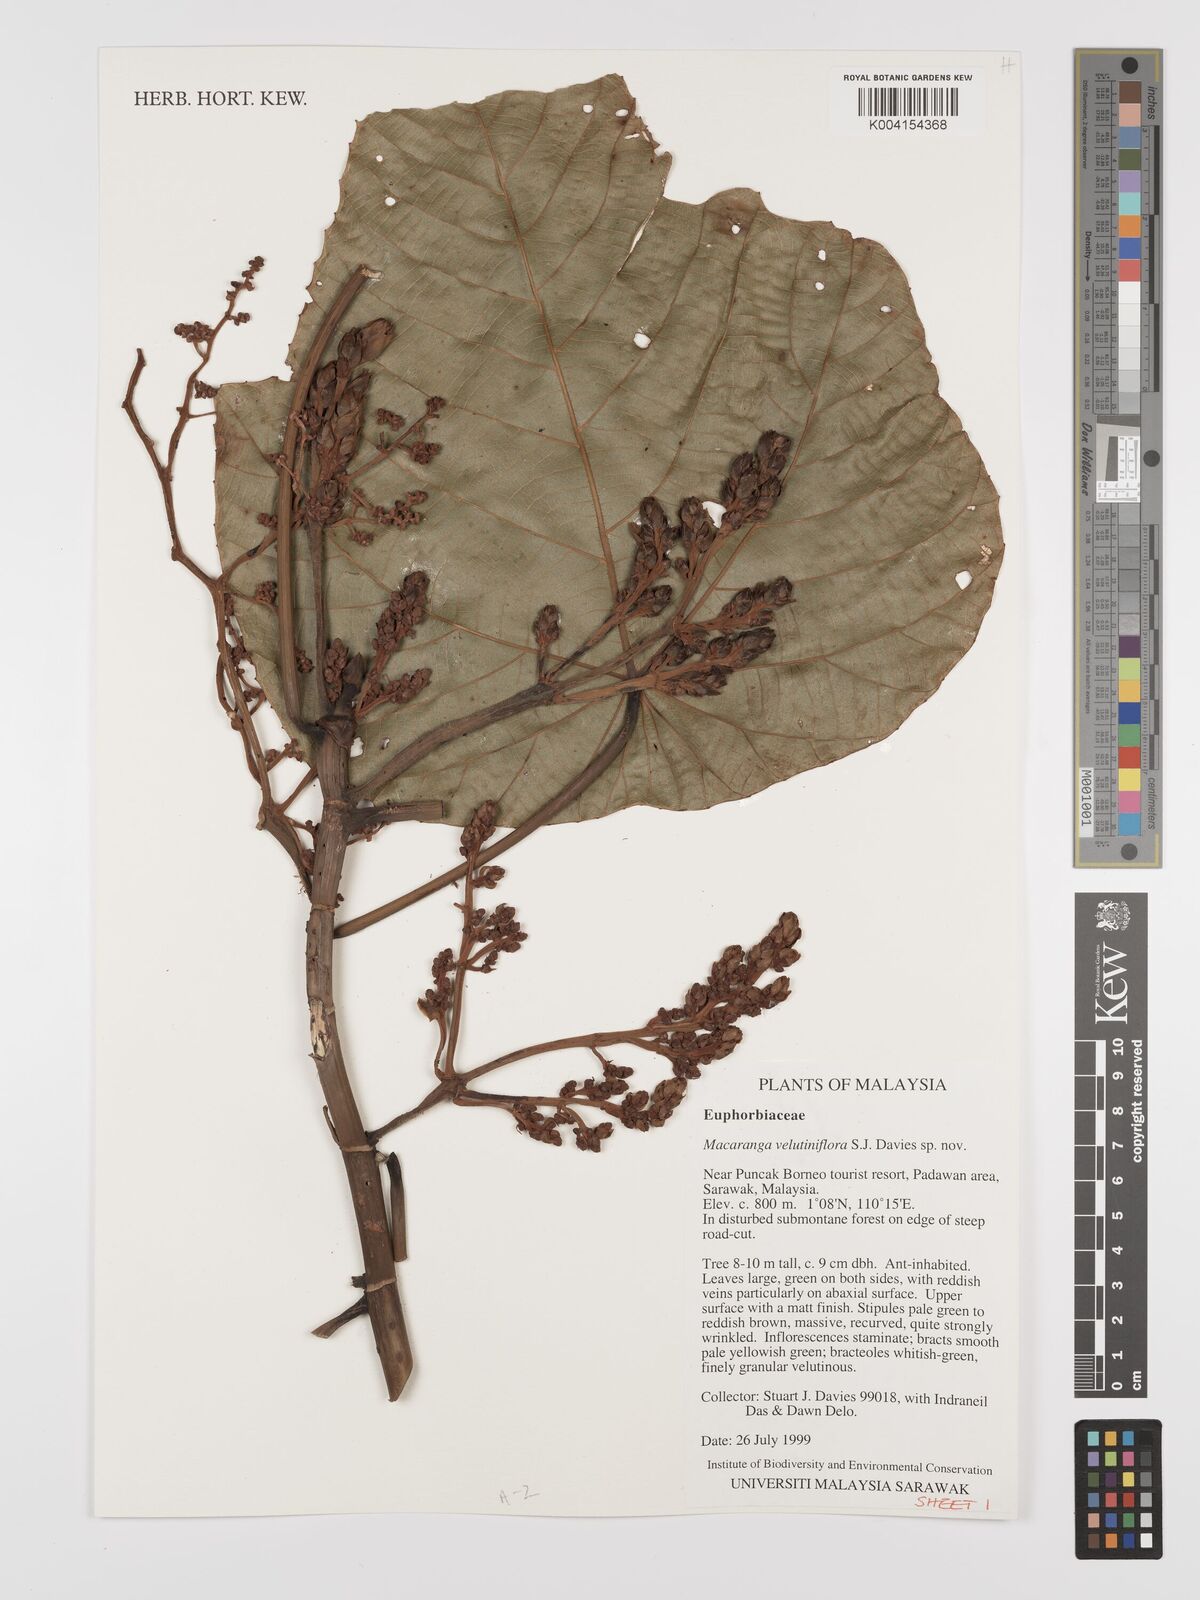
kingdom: Plantae
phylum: Tracheophyta
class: Magnoliopsida
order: Malpighiales
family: Euphorbiaceae
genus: Macaranga
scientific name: Macaranga velutiniflora
